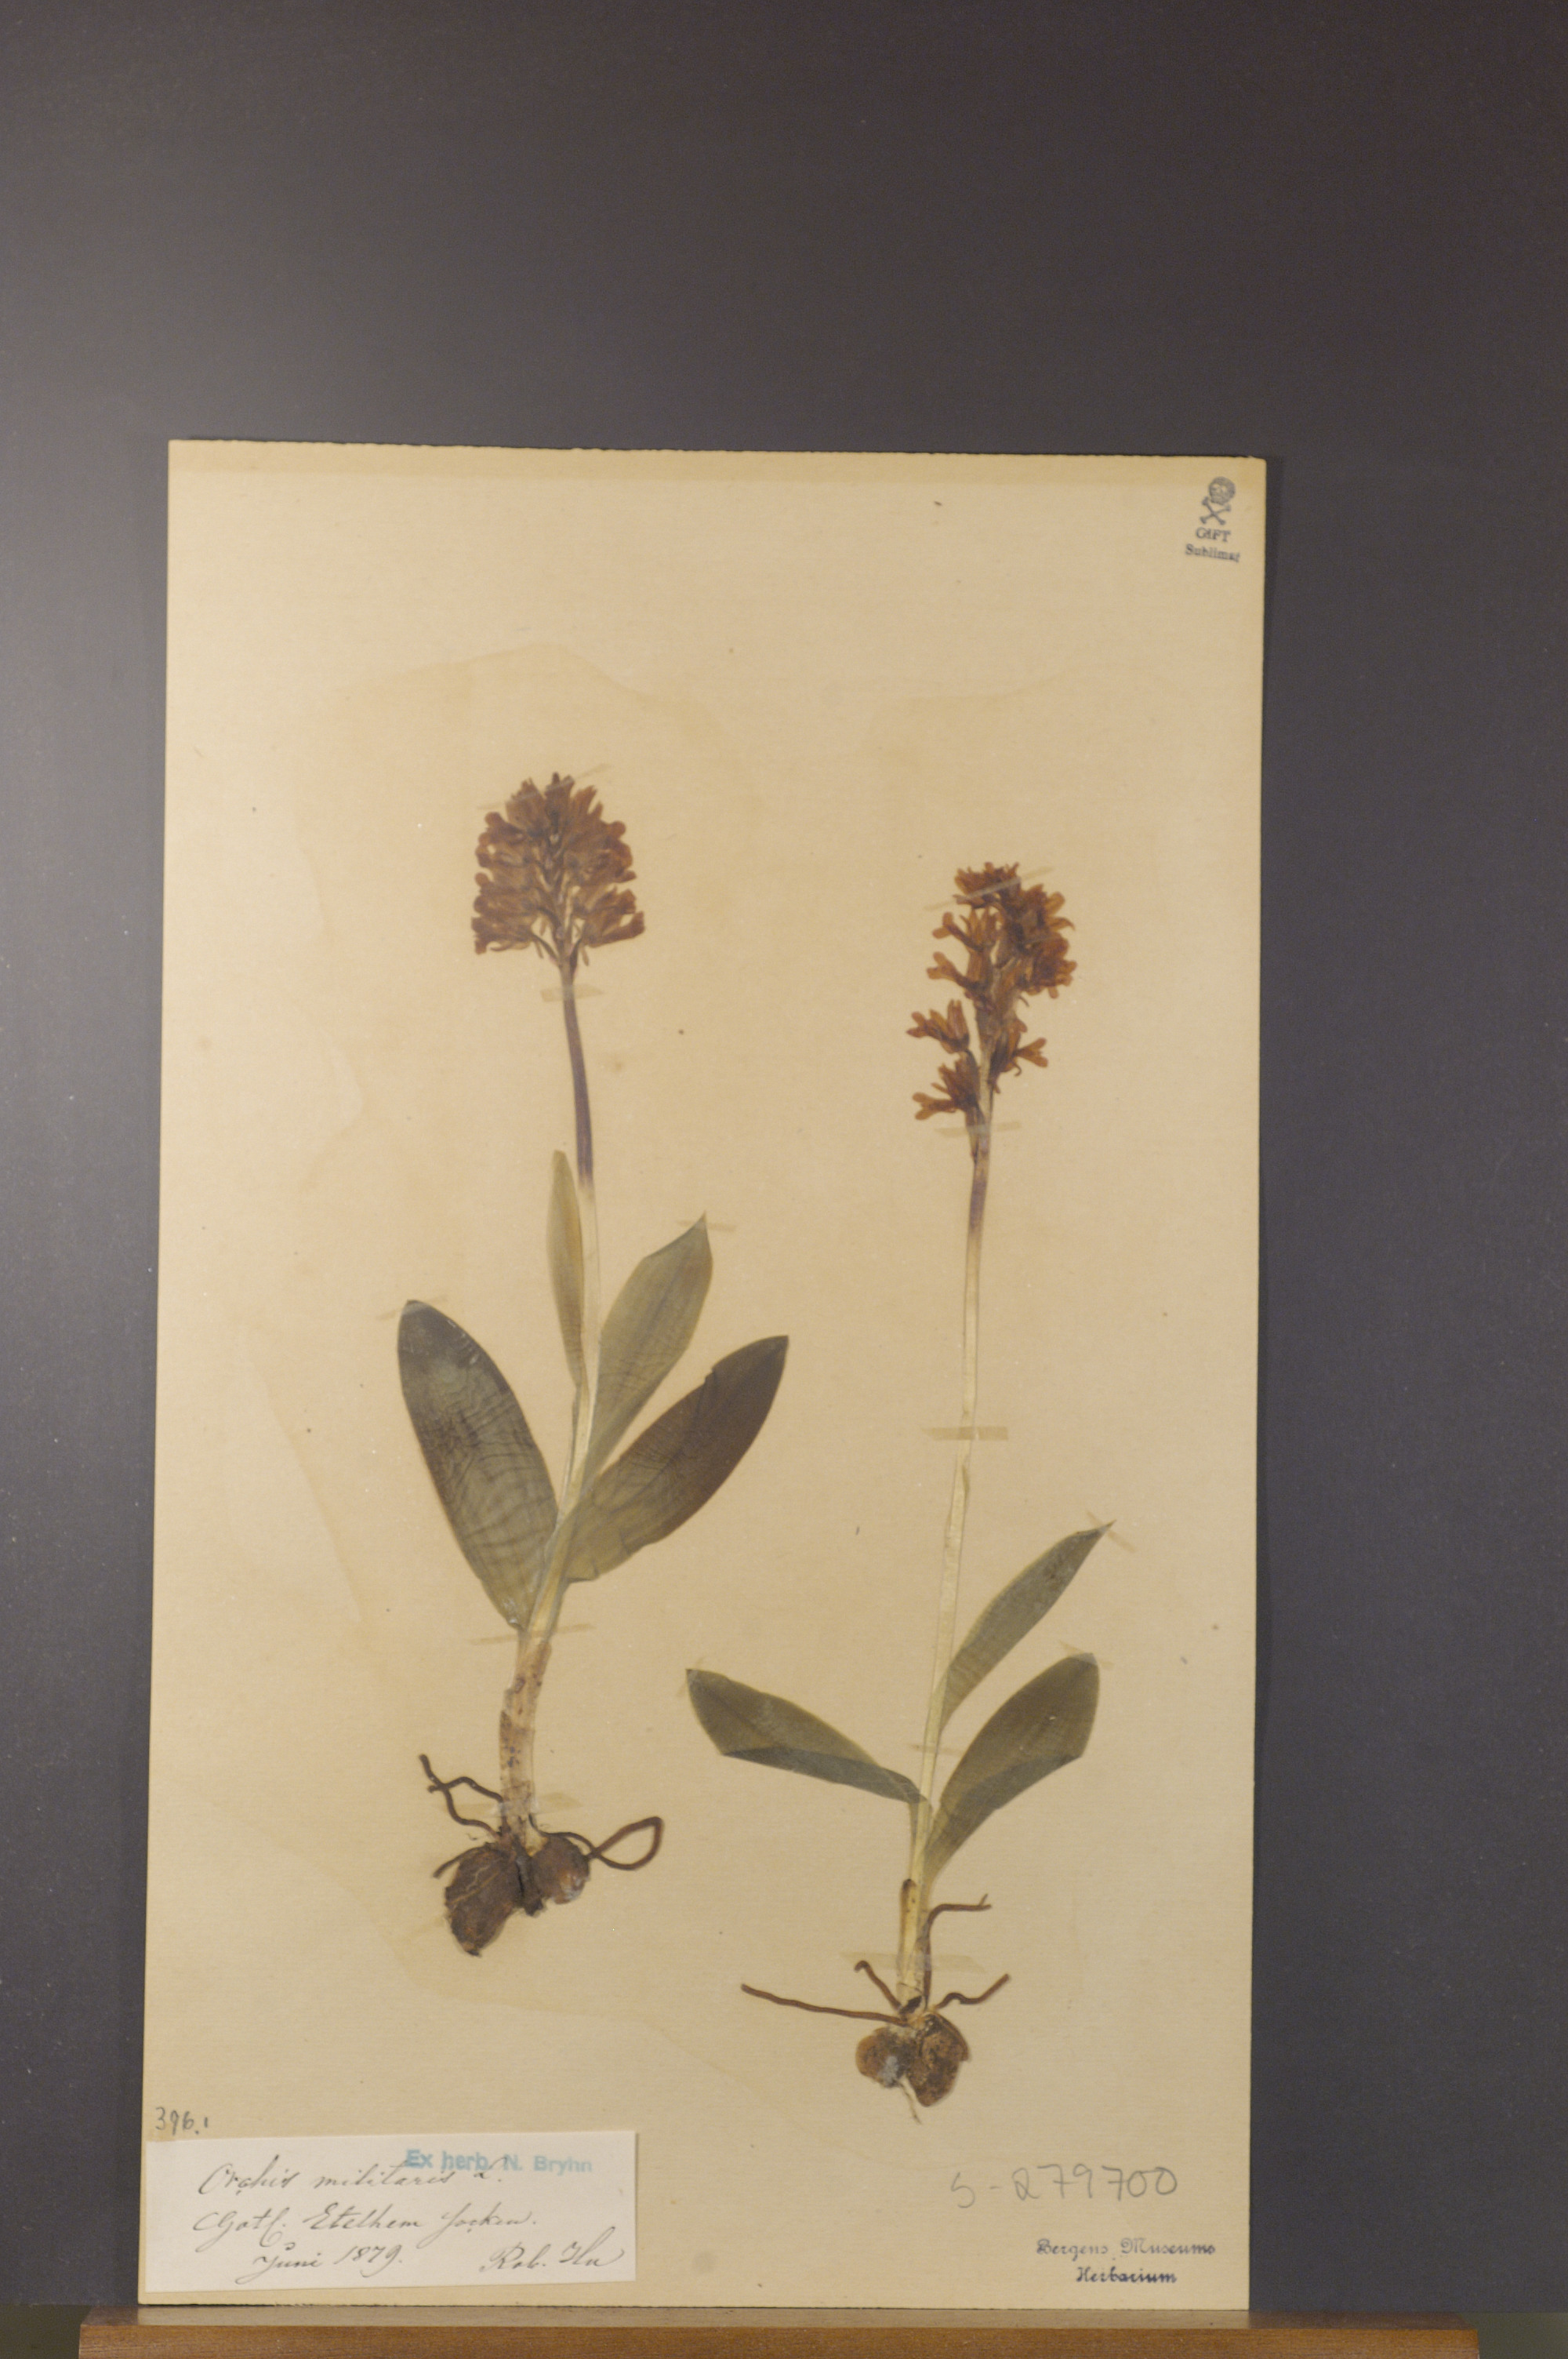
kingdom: Plantae
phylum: Tracheophyta
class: Liliopsida
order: Asparagales
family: Orchidaceae
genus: Orchis
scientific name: Orchis militaris
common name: Military orchid
